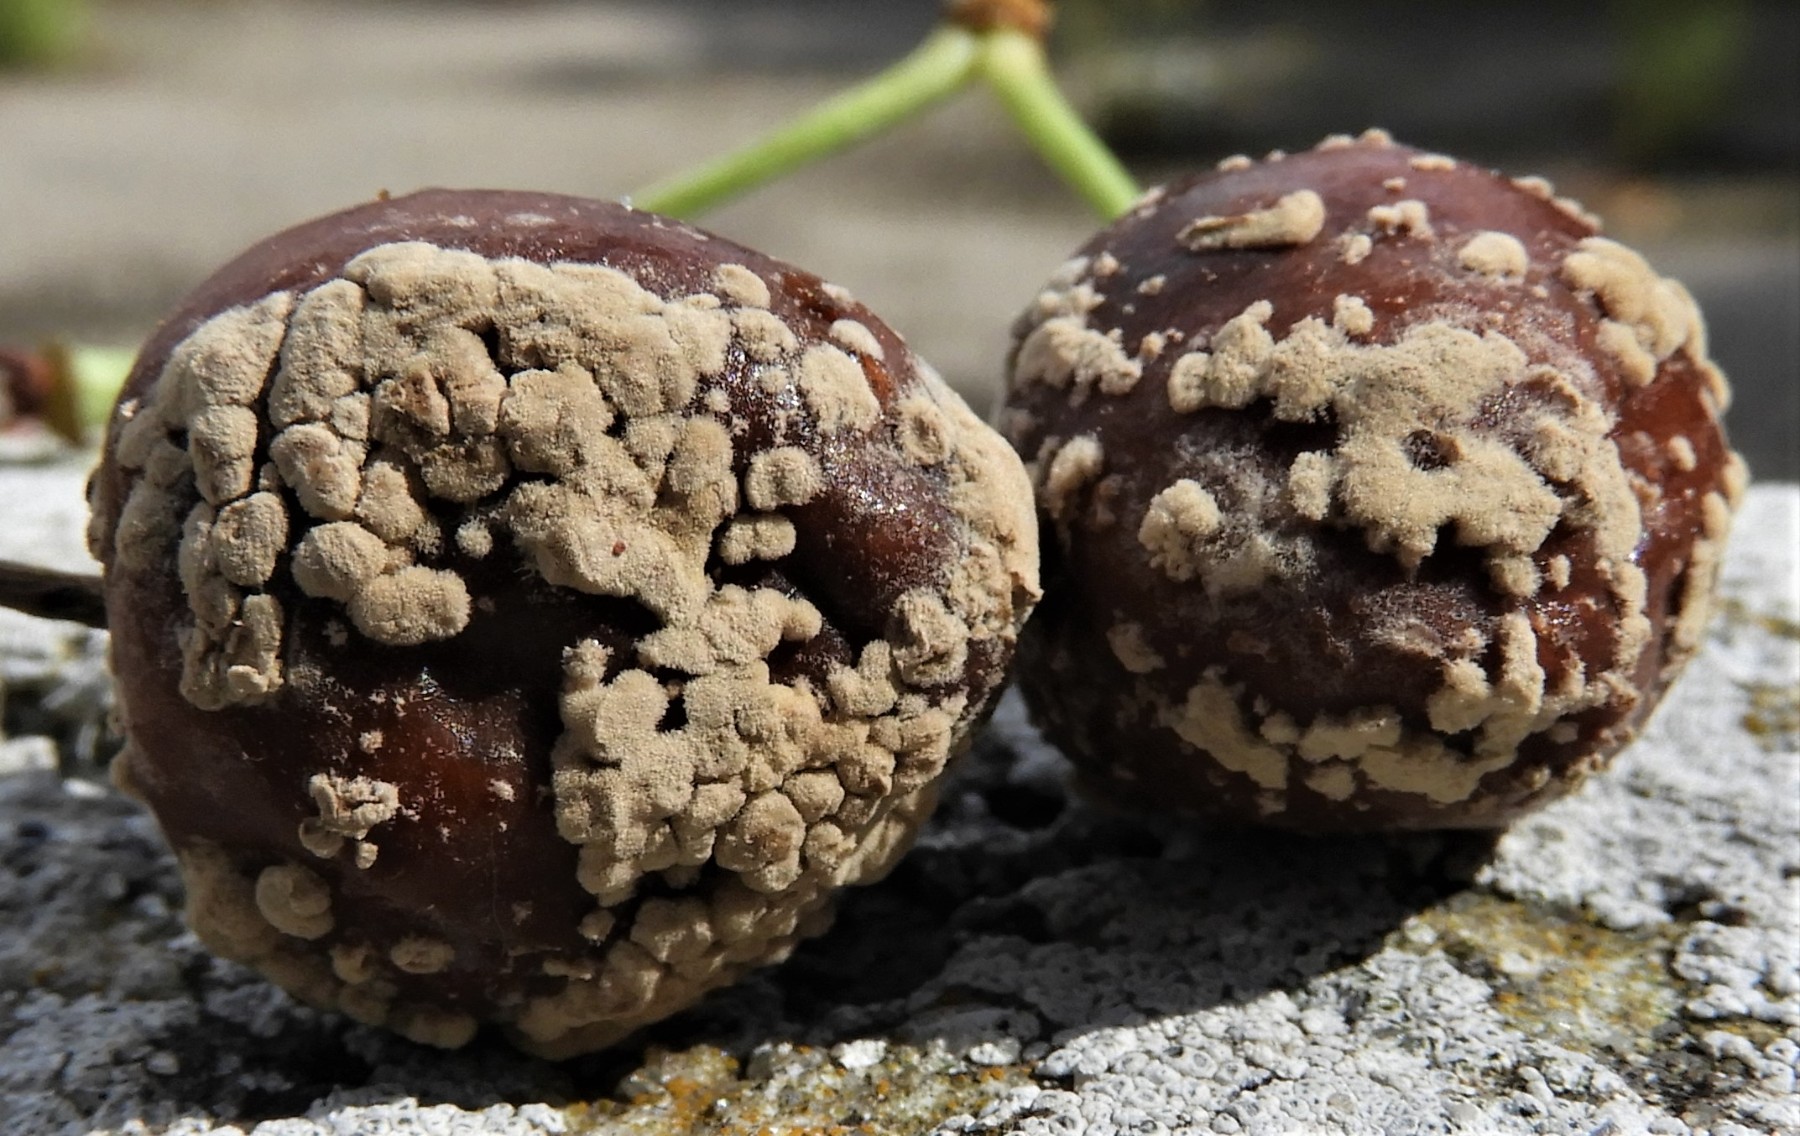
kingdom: Fungi
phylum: Ascomycota
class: Leotiomycetes
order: Helotiales
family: Sclerotiniaceae
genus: Monilinia
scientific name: Monilinia laxa
